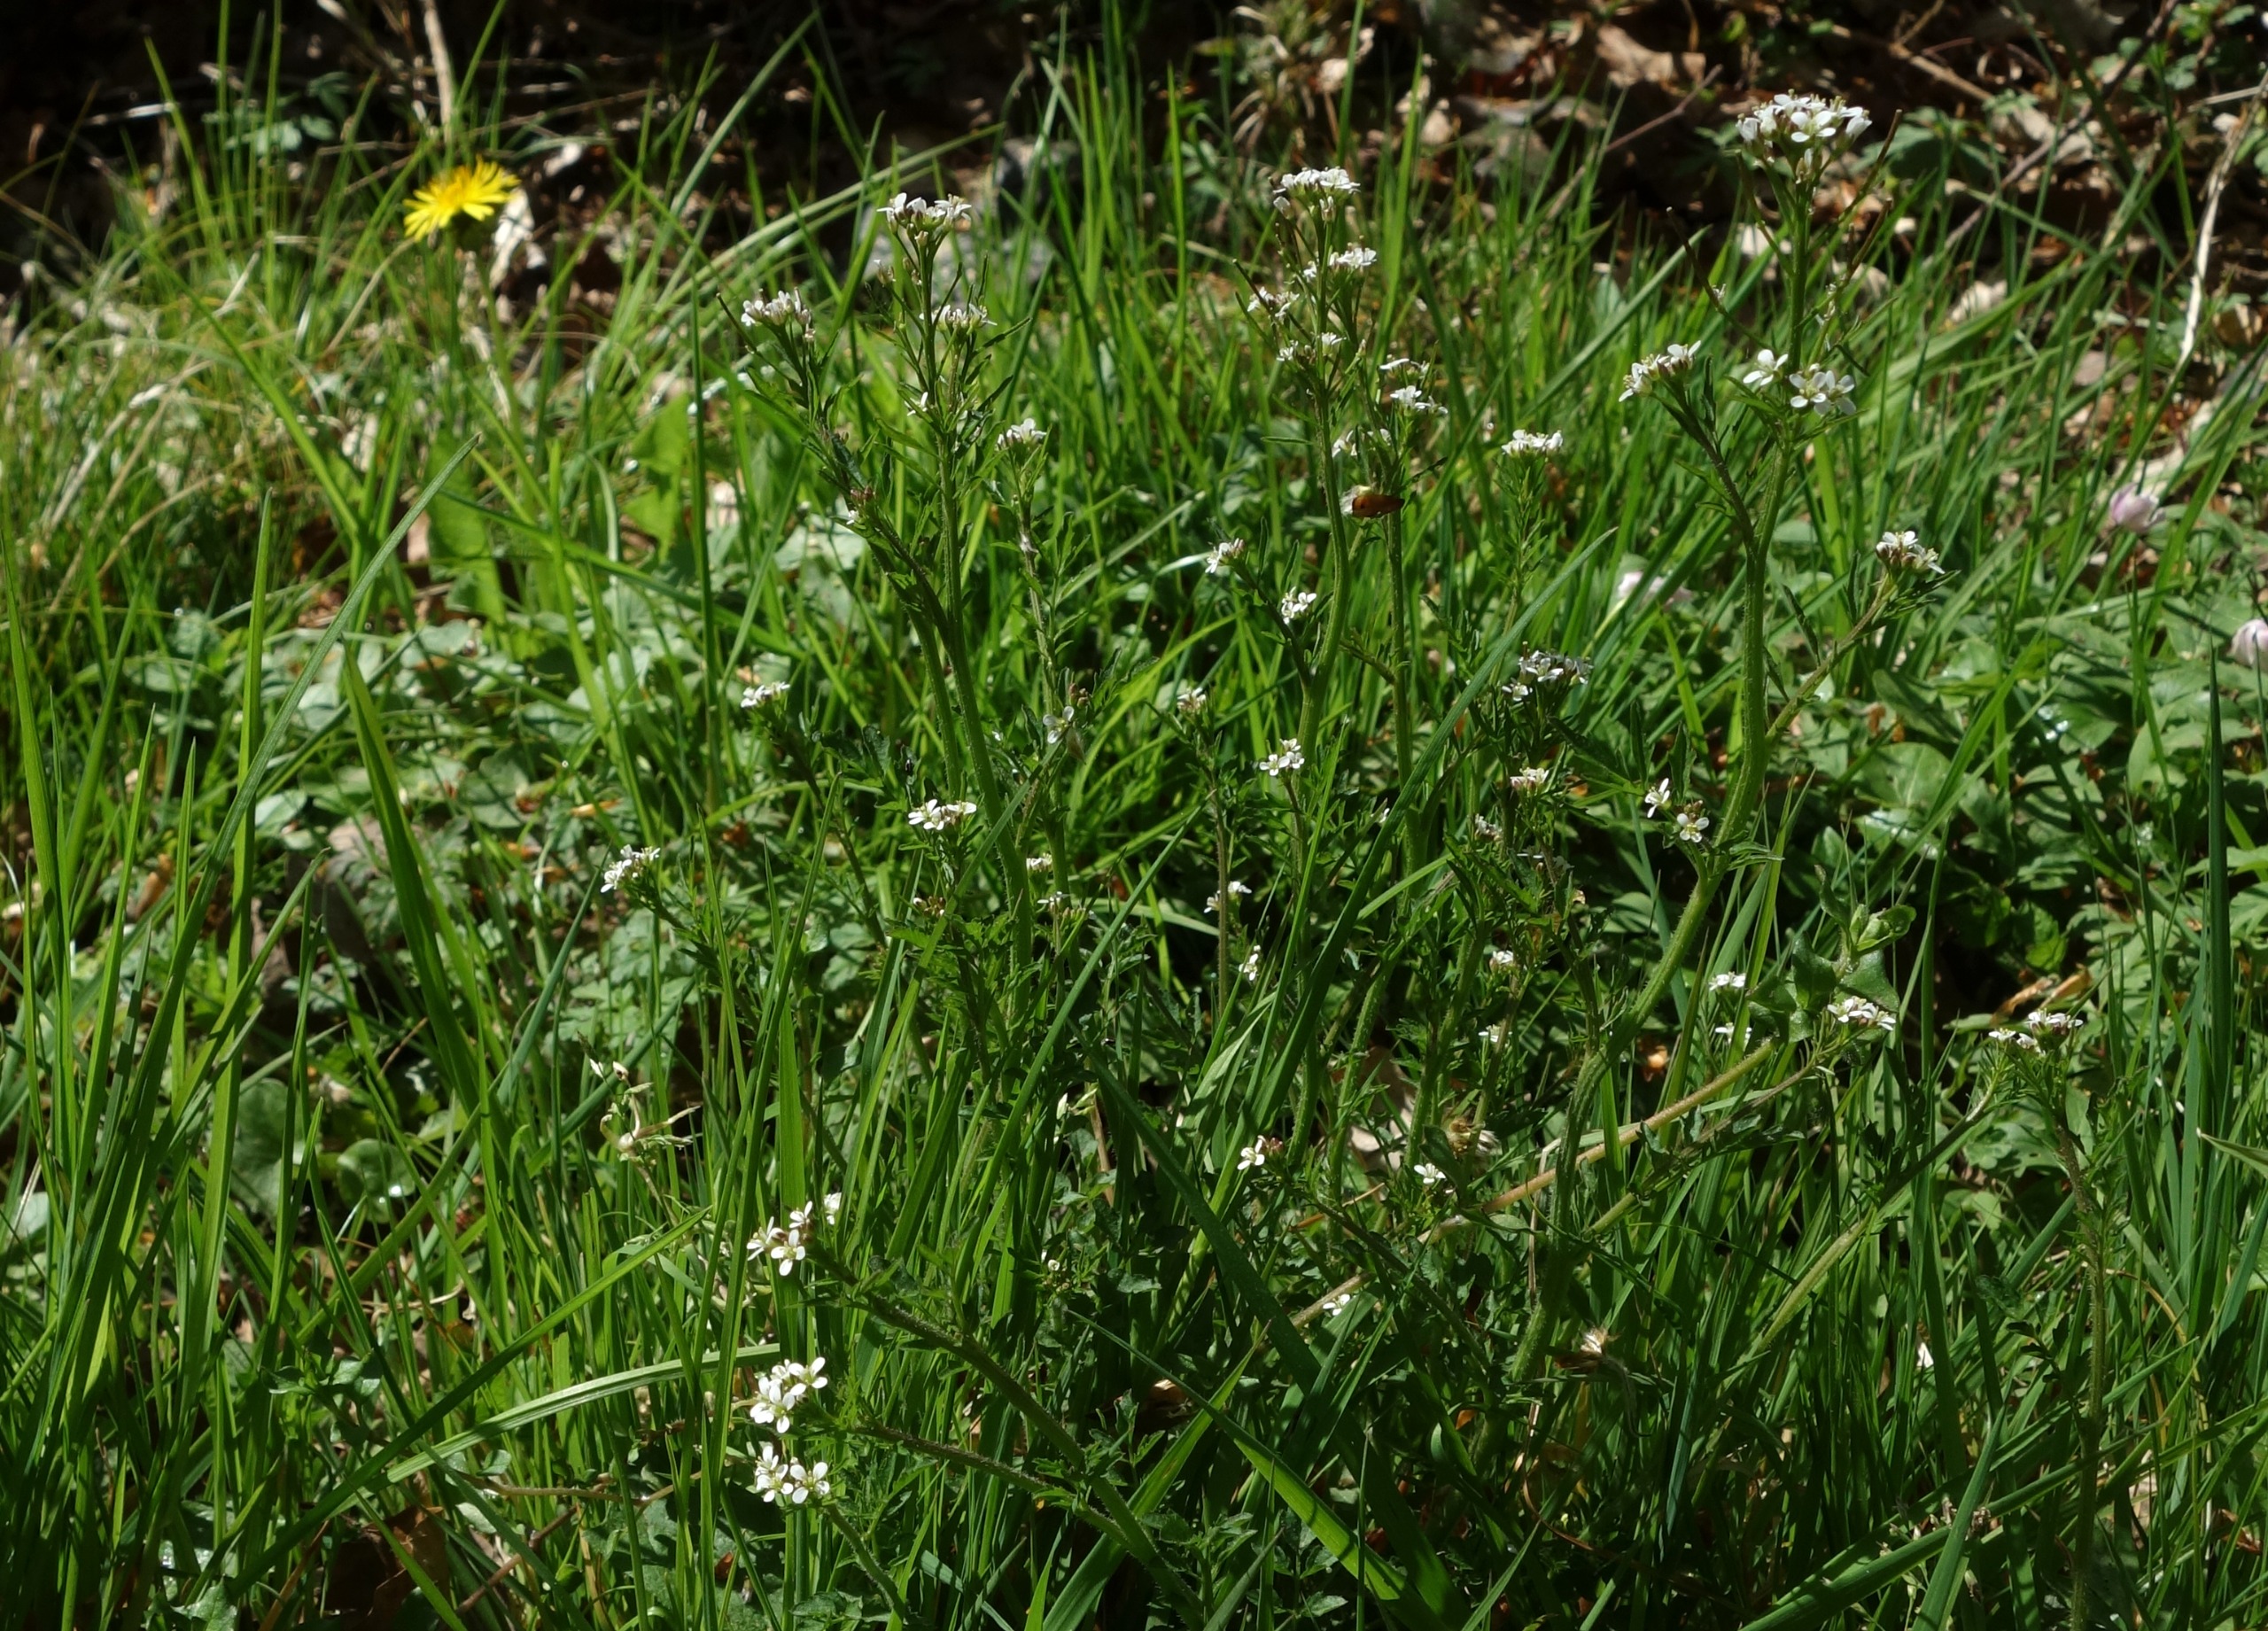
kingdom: Plantae
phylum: Tracheophyta
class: Magnoliopsida
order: Brassicales
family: Brassicaceae
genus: Cardamine
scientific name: Cardamine flexuosa
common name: Skov-springklap
